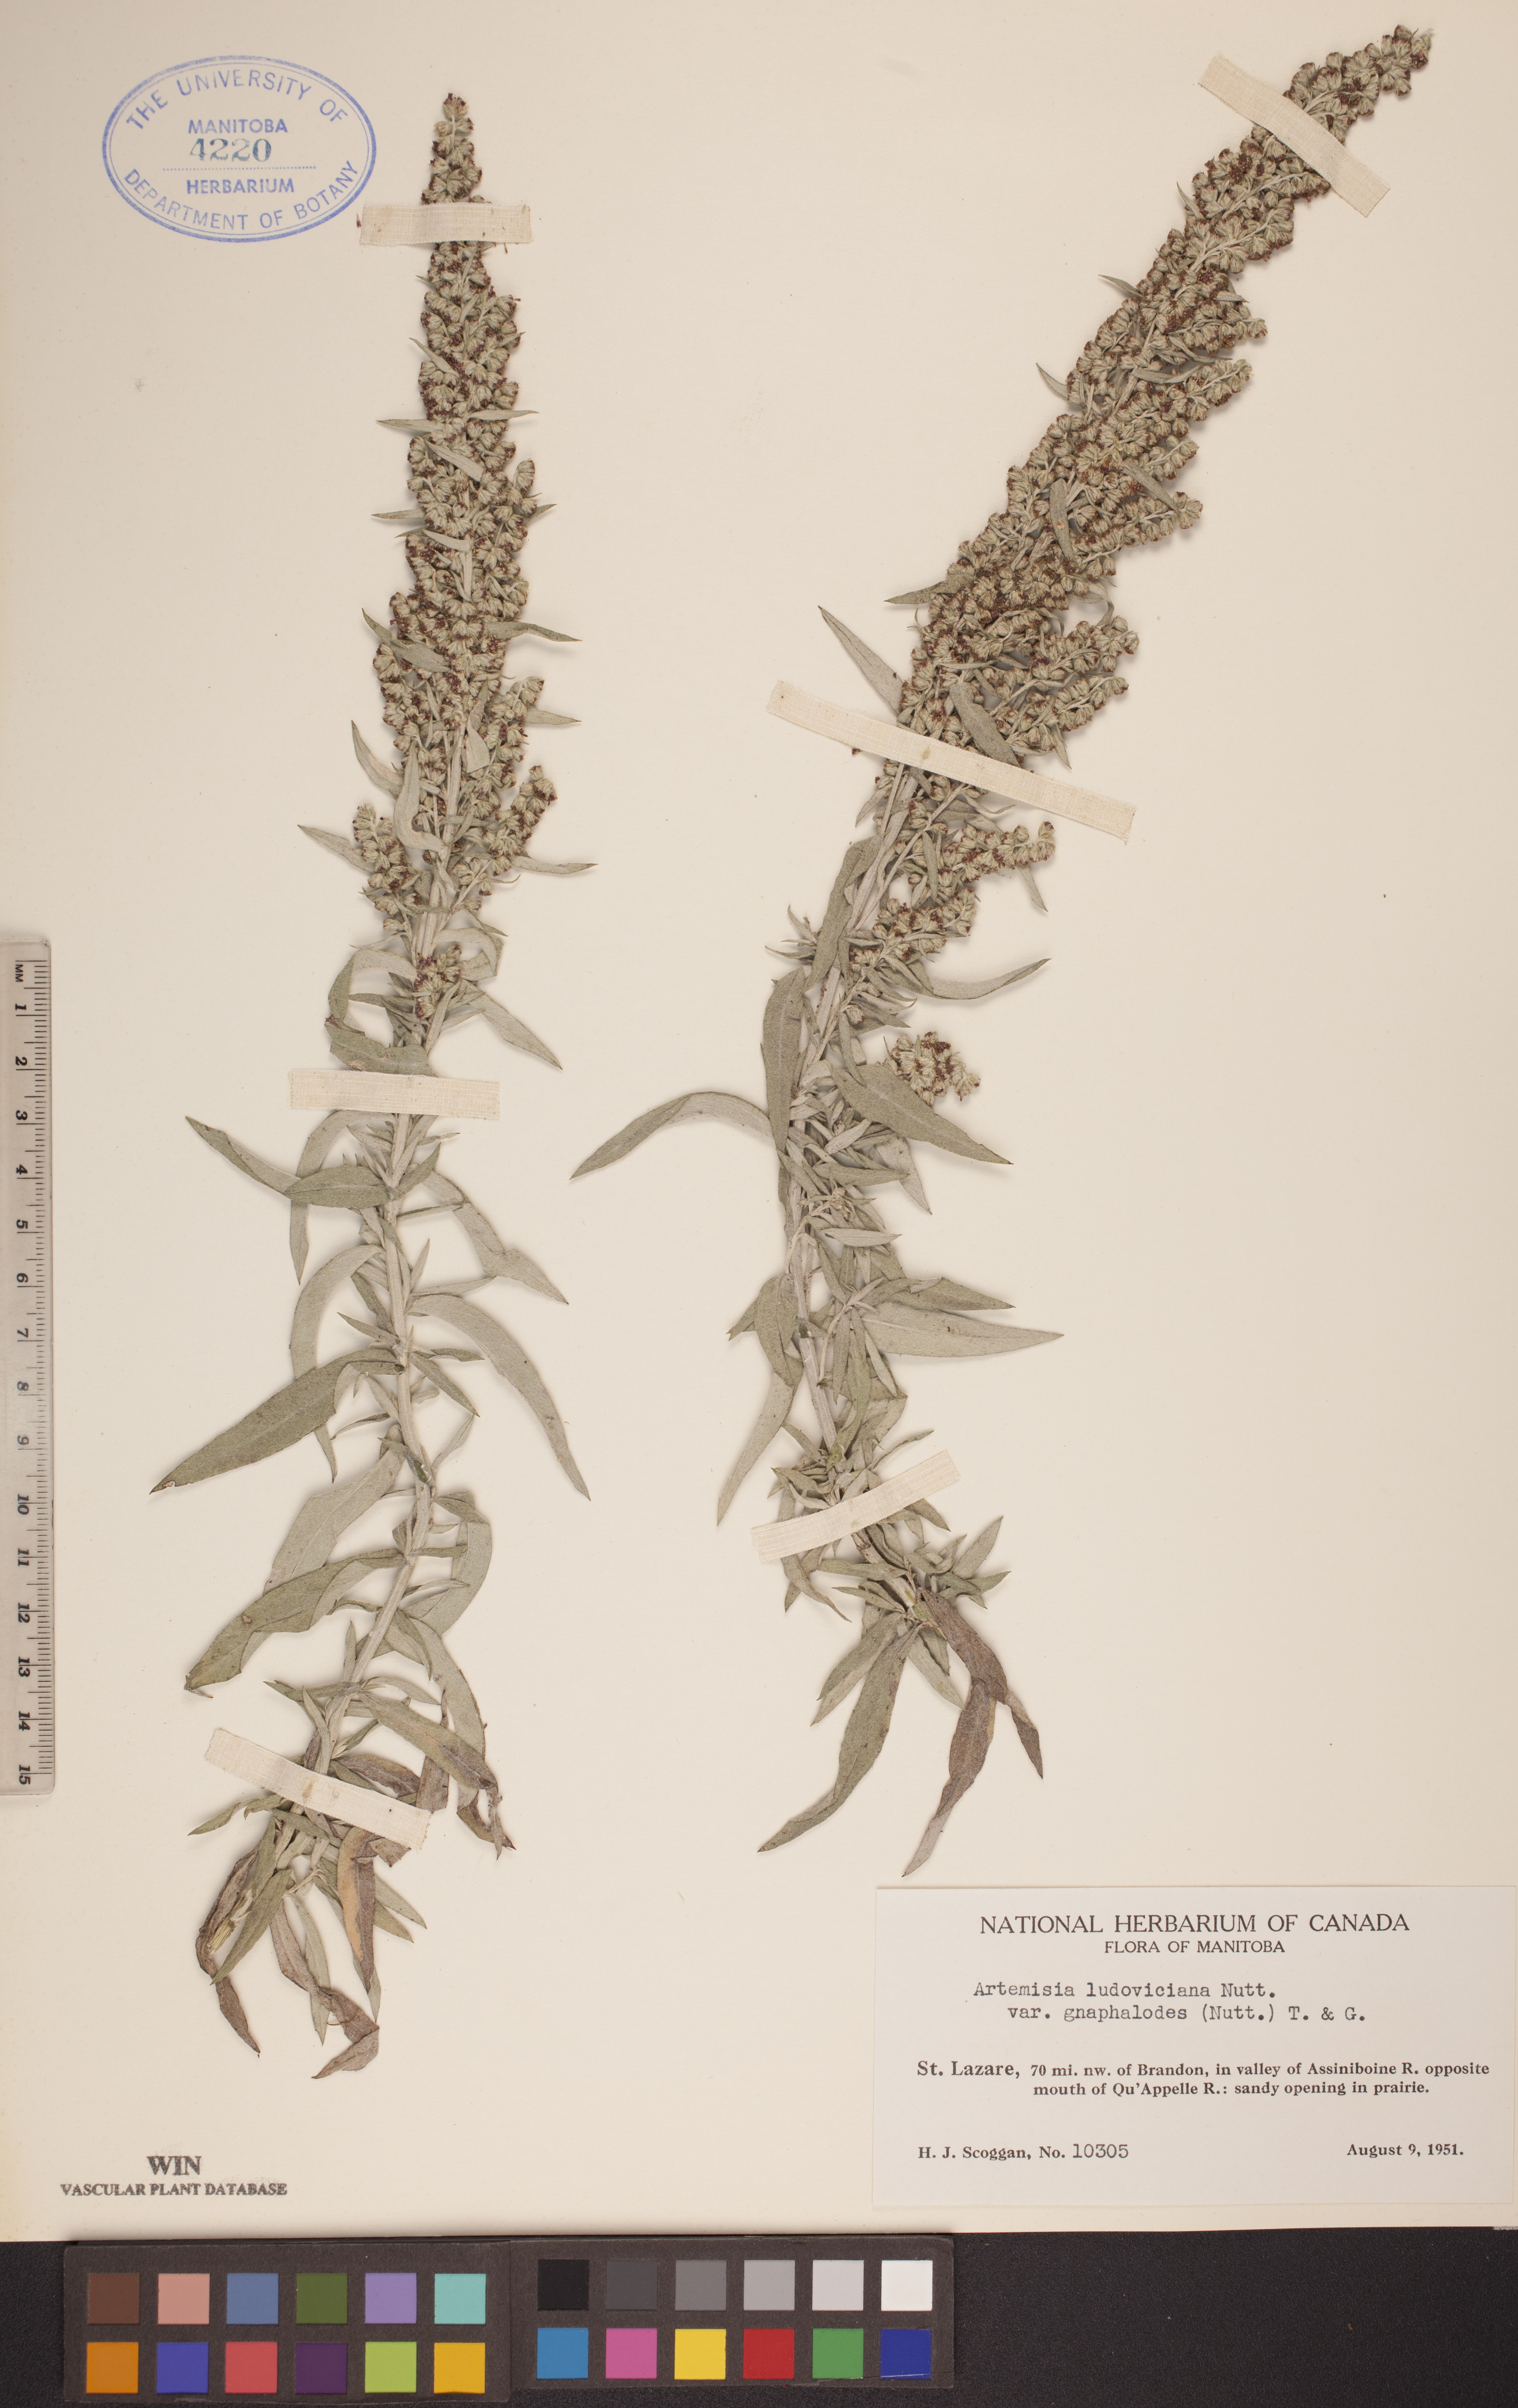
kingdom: Plantae
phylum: Tracheophyta
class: Magnoliopsida
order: Asterales
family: Asteraceae
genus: Artemisia
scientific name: Artemisia ludoviciana
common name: Western mugwort
